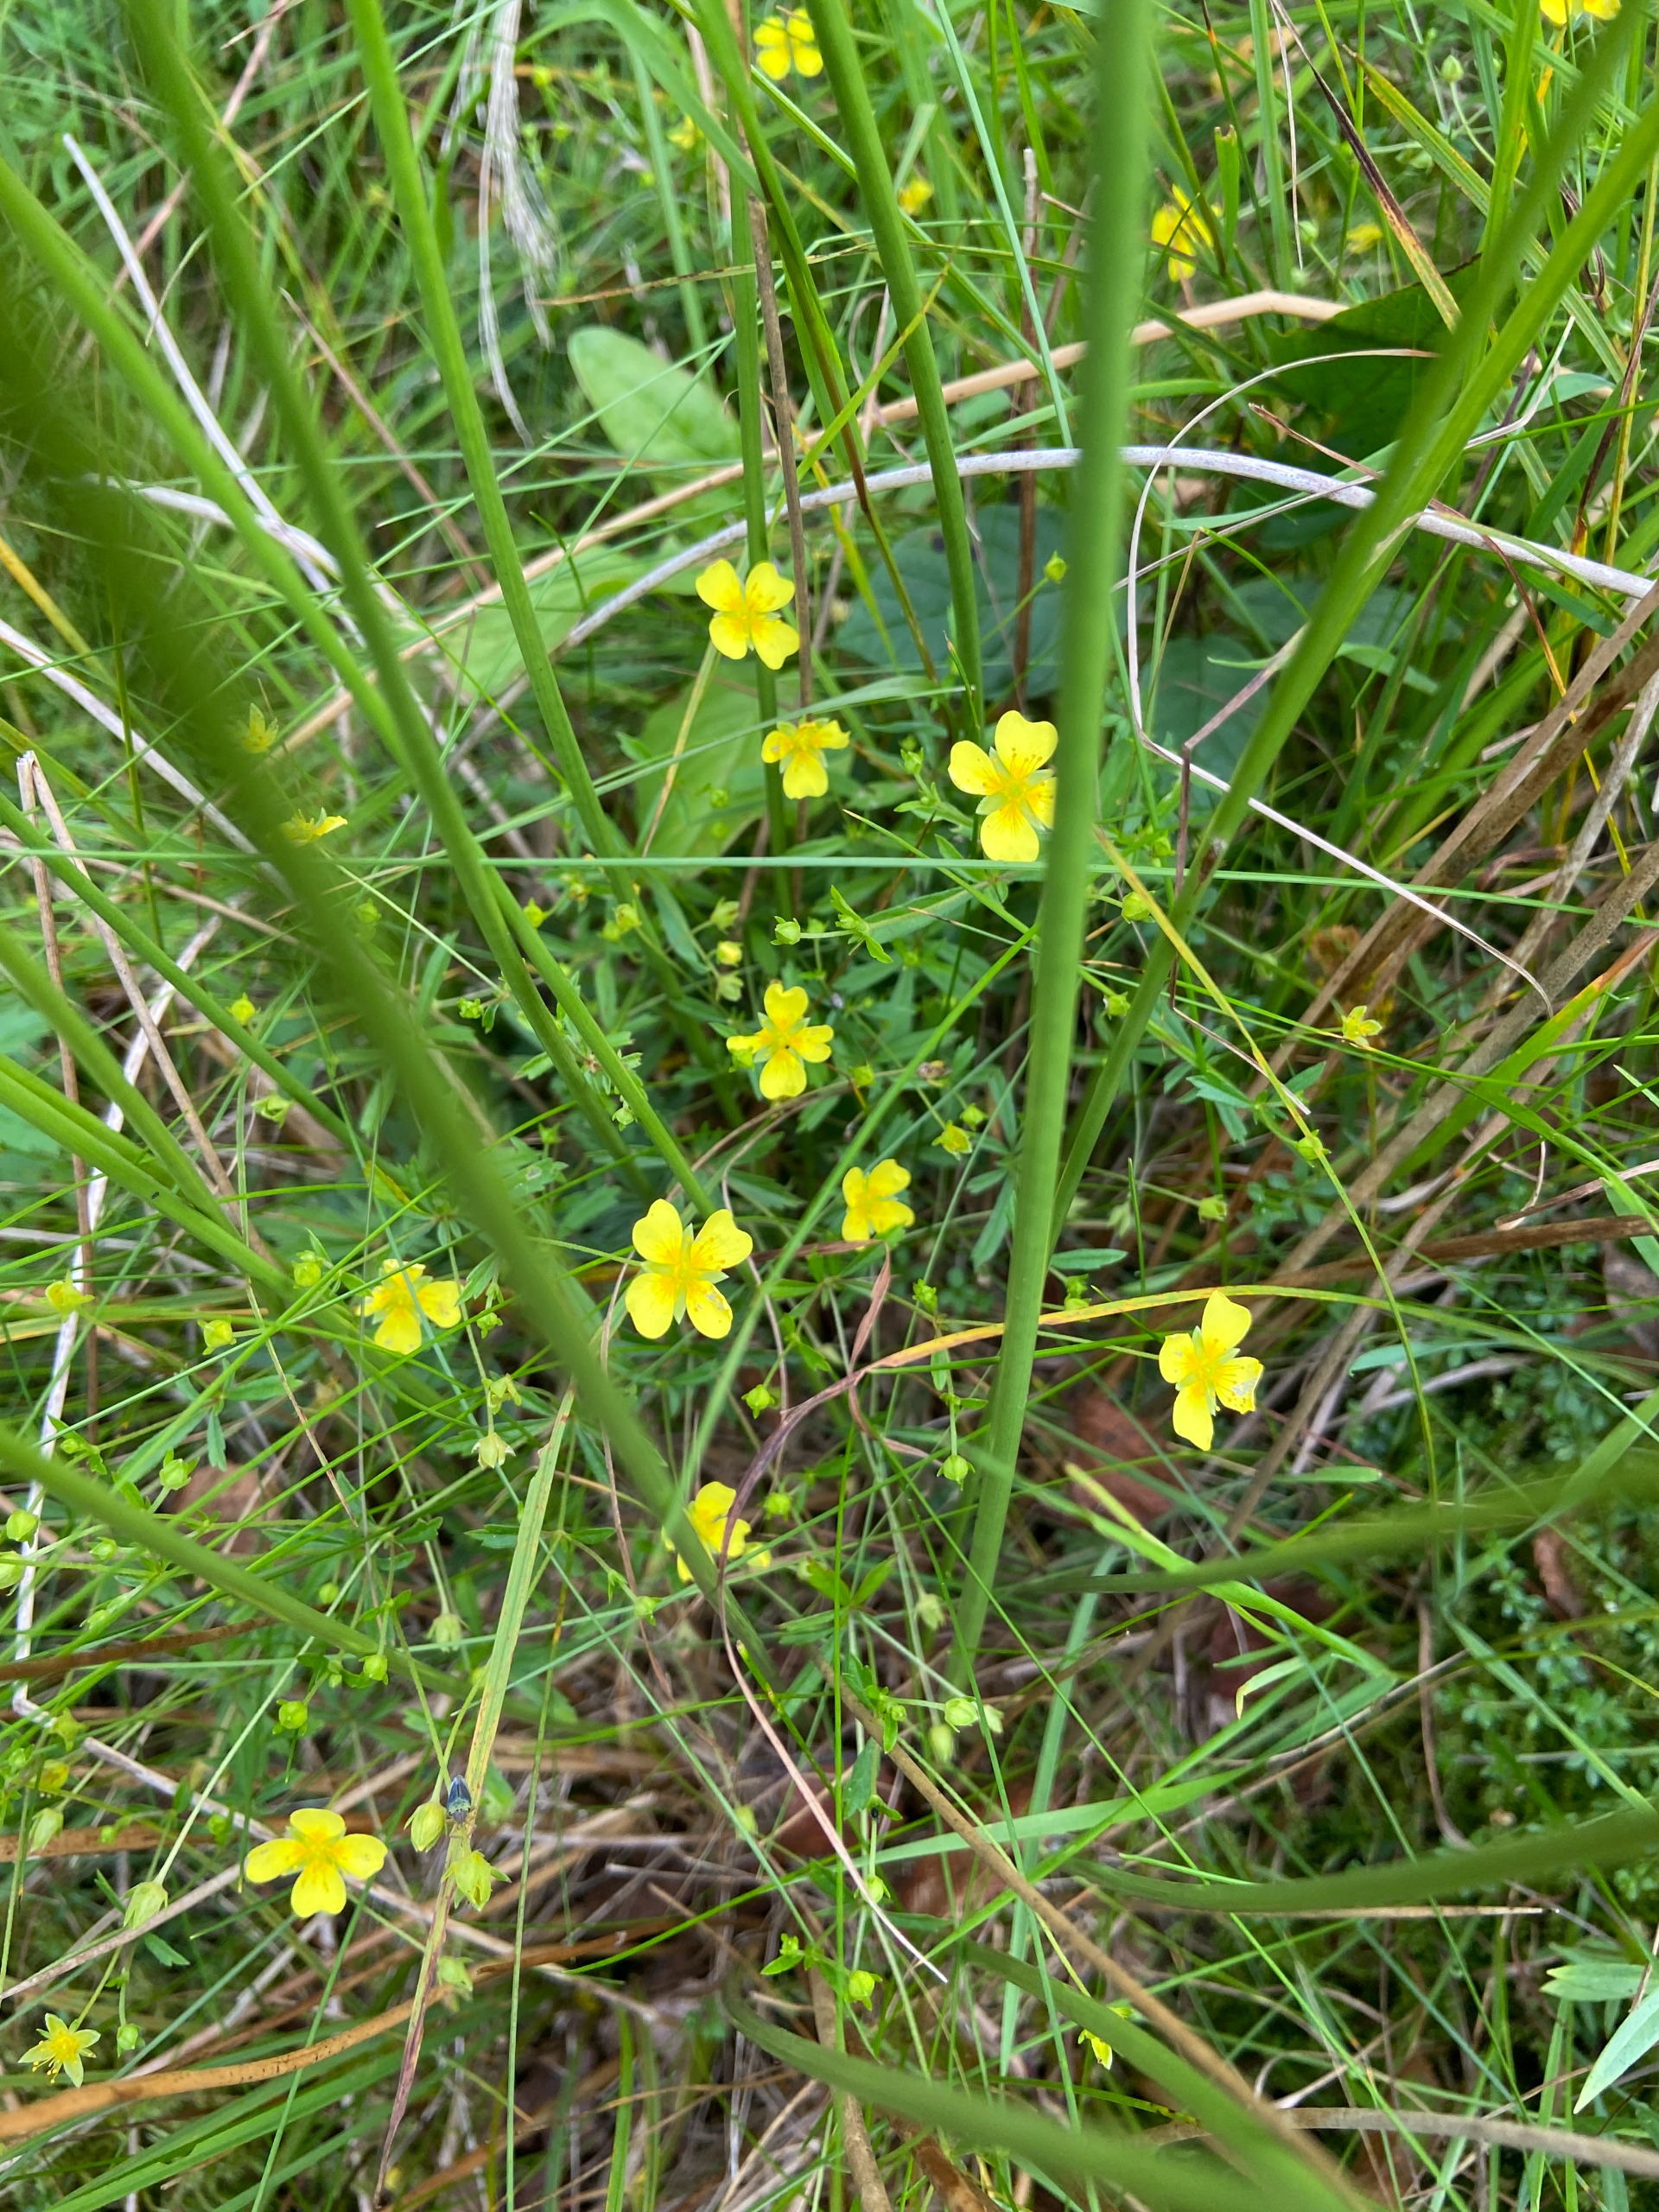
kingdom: Plantae
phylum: Tracheophyta
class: Magnoliopsida
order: Rosales
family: Rosaceae
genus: Potentilla
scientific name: Potentilla erecta
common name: Tormentil
